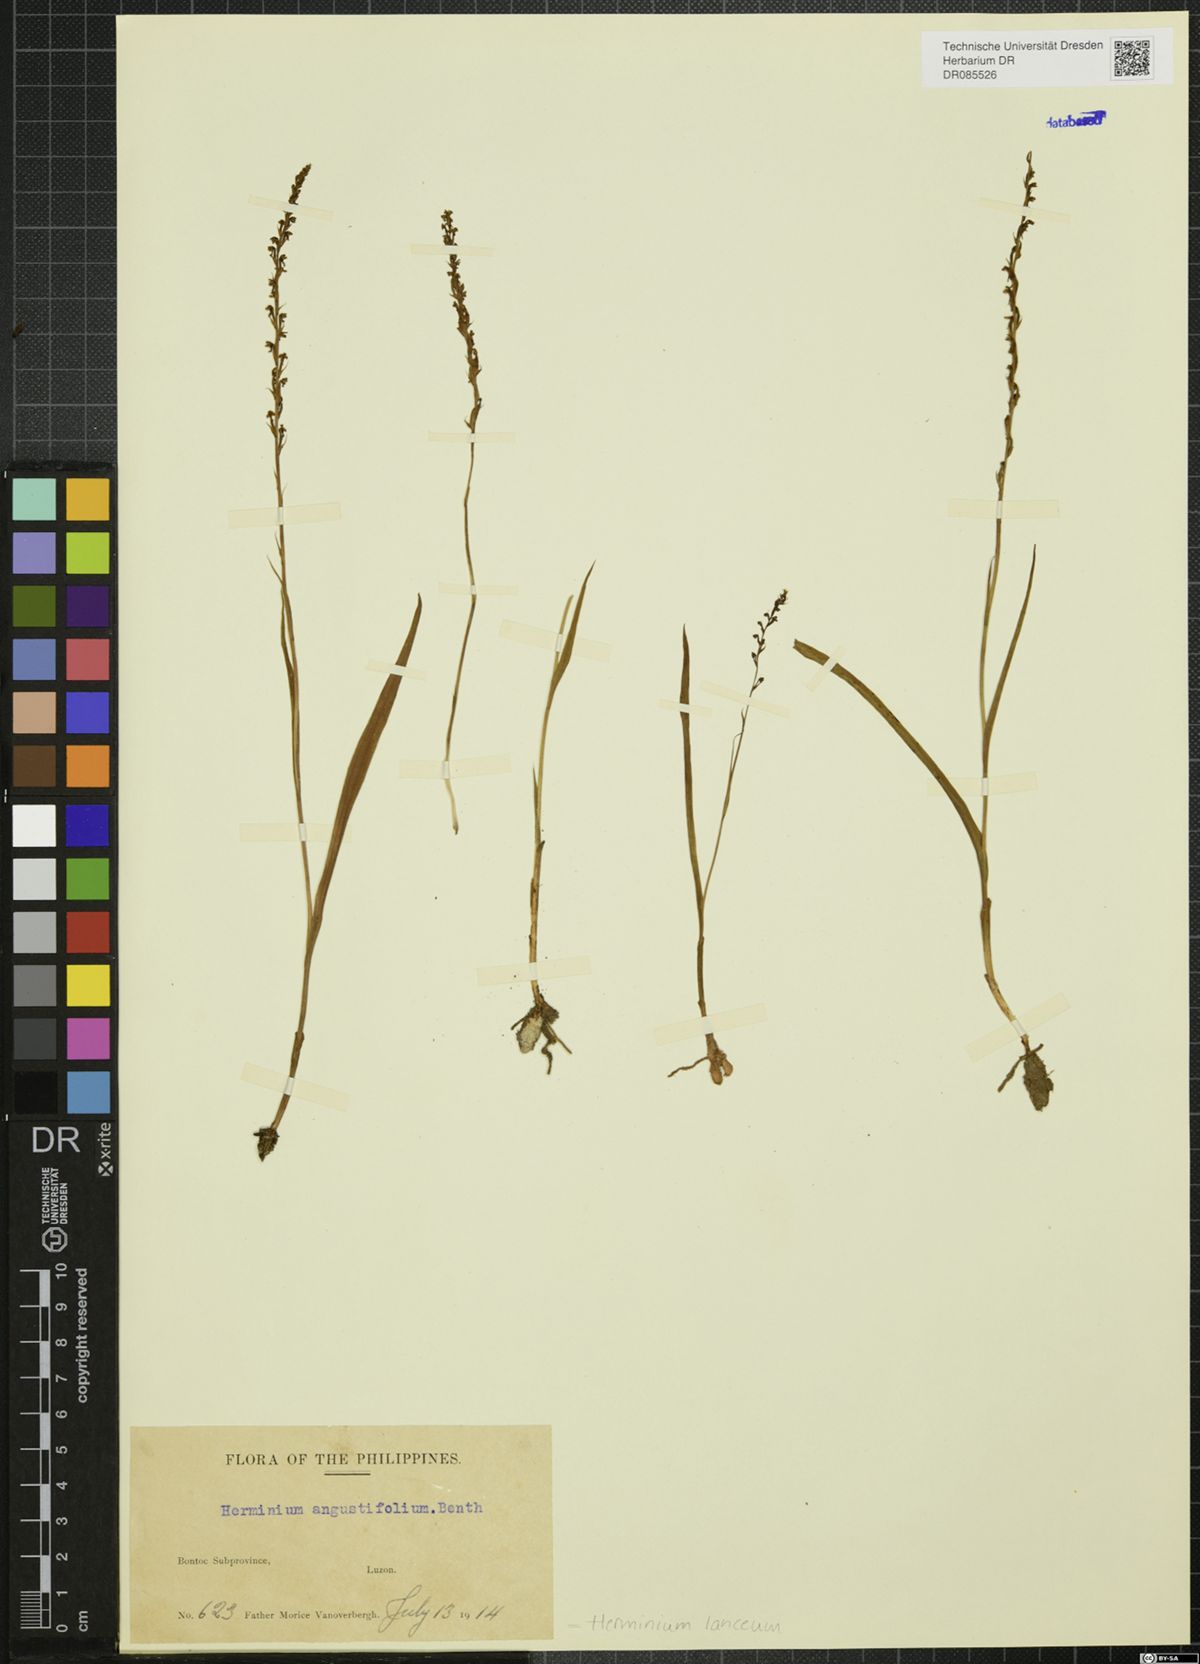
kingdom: Plantae
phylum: Tracheophyta
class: Liliopsida
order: Asparagales
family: Orchidaceae
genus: Herminium
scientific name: Herminium lanceum
